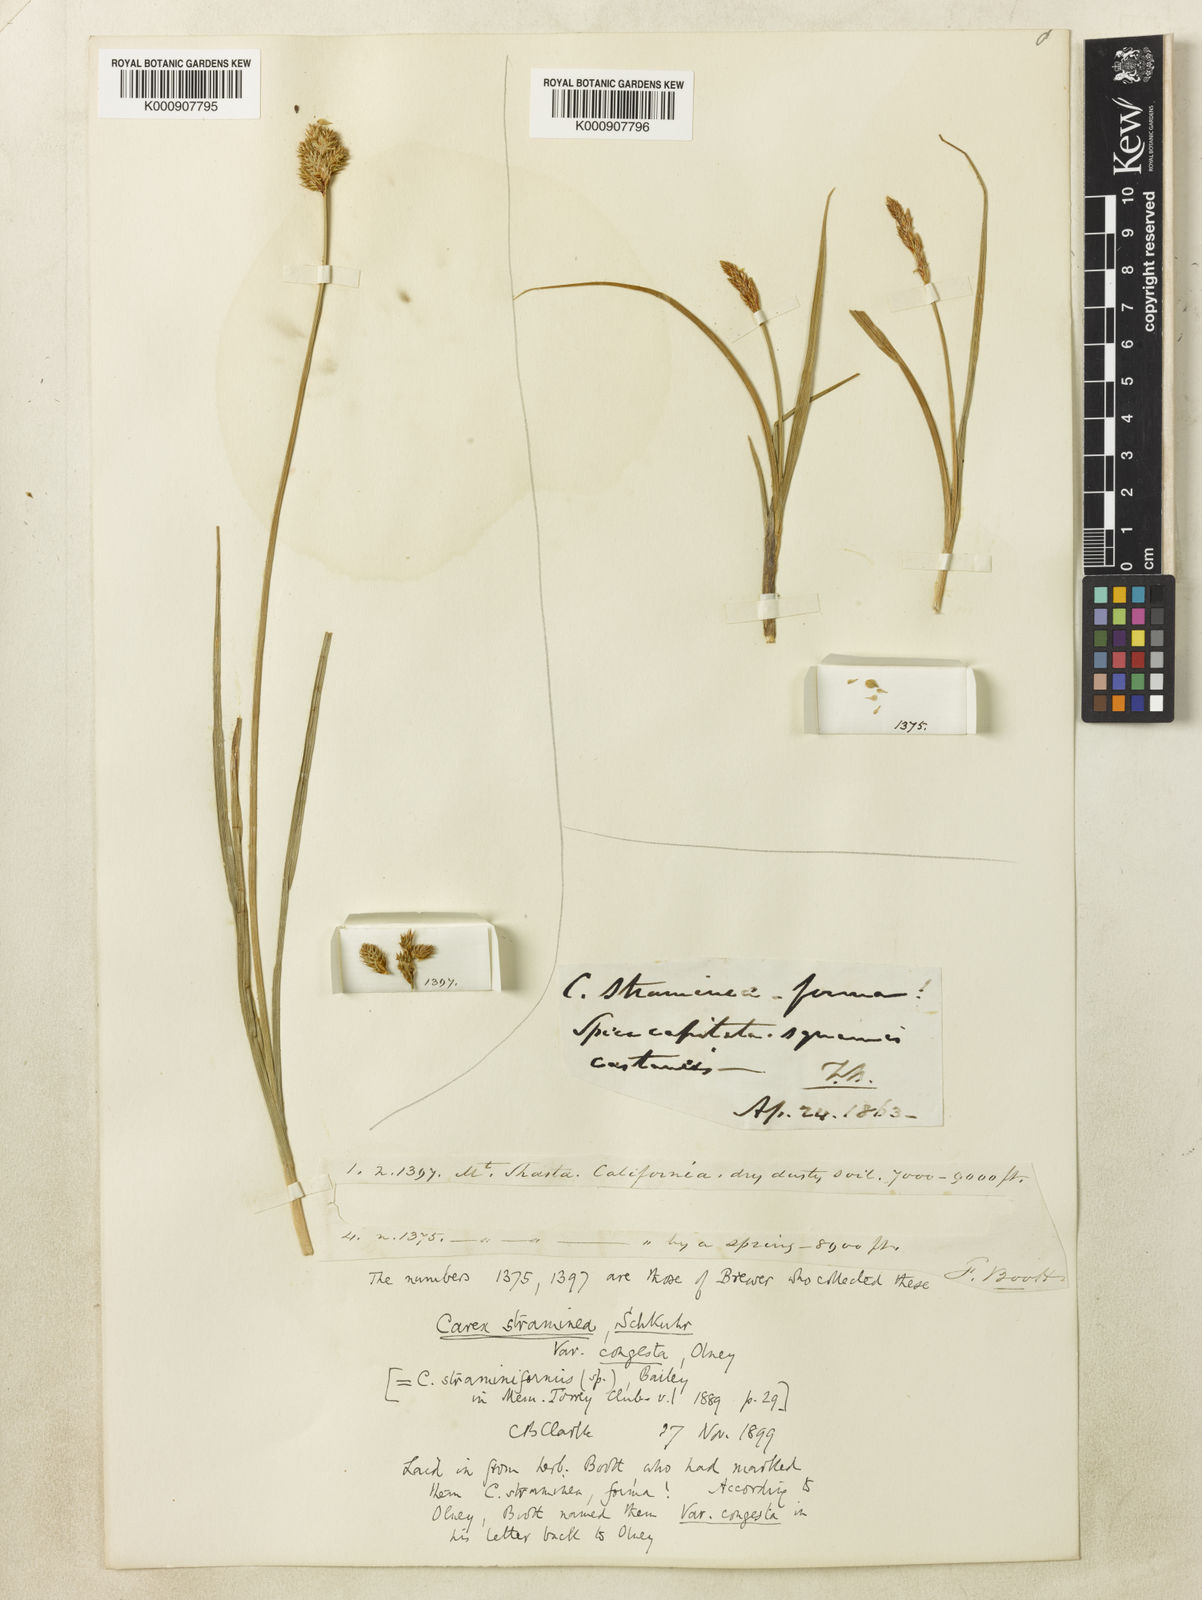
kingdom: Plantae
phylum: Tracheophyta
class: Liliopsida
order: Poales
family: Cyperaceae
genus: Carex
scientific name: Carex straminiformis
